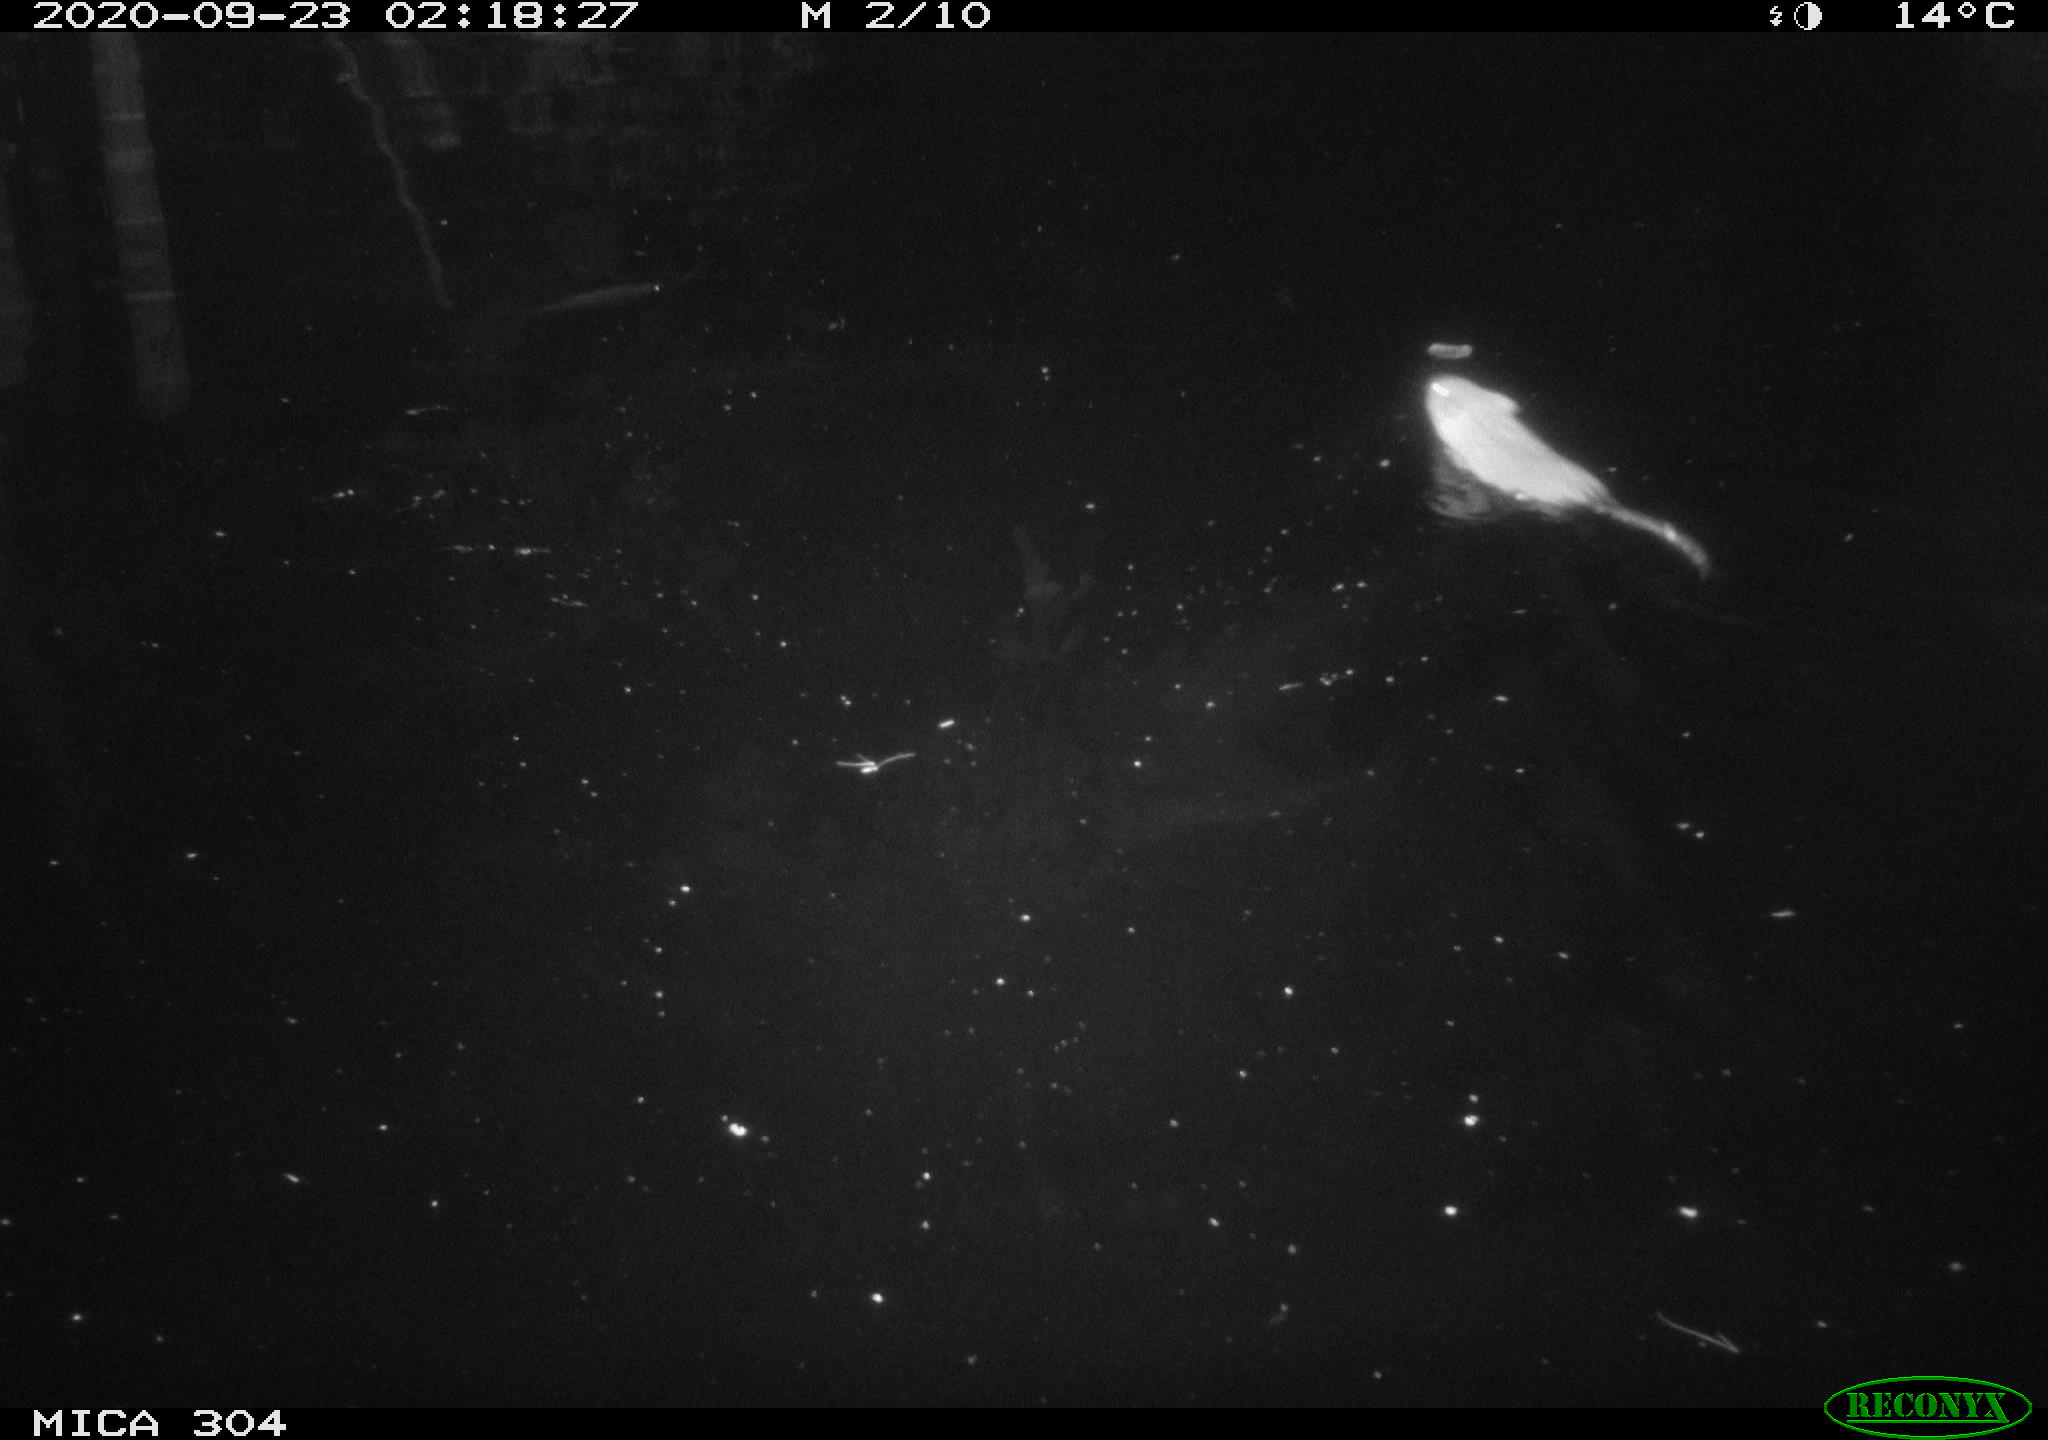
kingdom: Animalia
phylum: Chordata
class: Mammalia
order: Rodentia
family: Muridae
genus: Rattus
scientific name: Rattus norvegicus
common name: Brown rat
